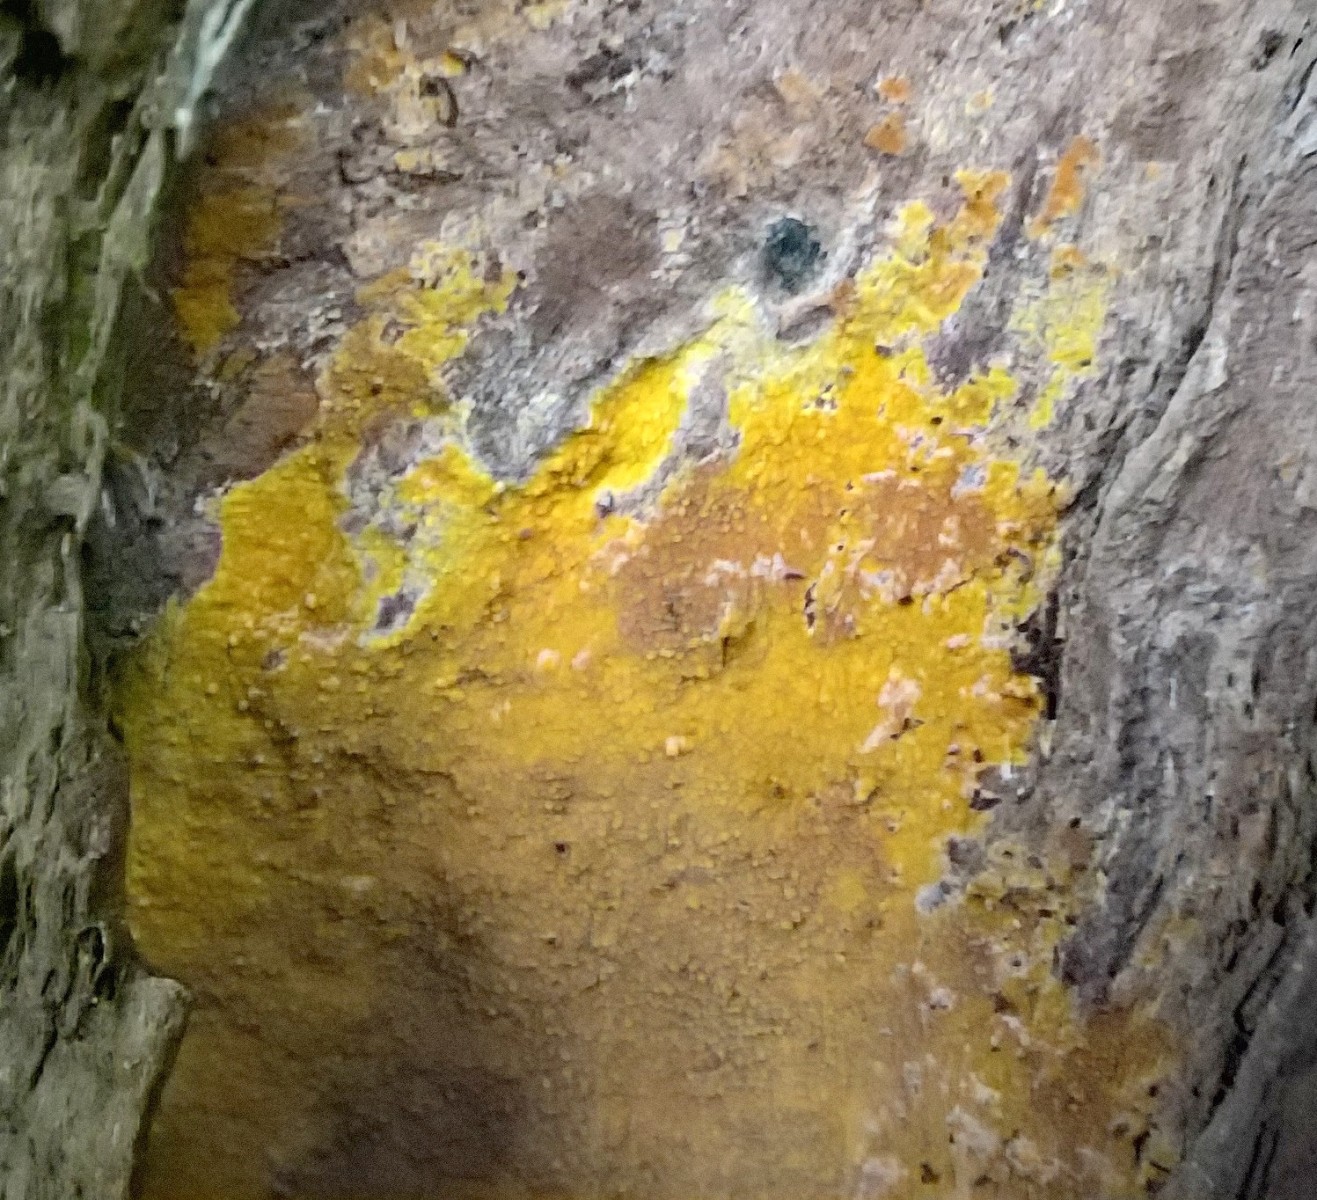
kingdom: Fungi
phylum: Basidiomycota
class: Agaricomycetes
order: Polyporales
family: Meruliaceae
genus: Phlebiodontia
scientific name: Phlebiodontia subochracea
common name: svovl-åresvamp
